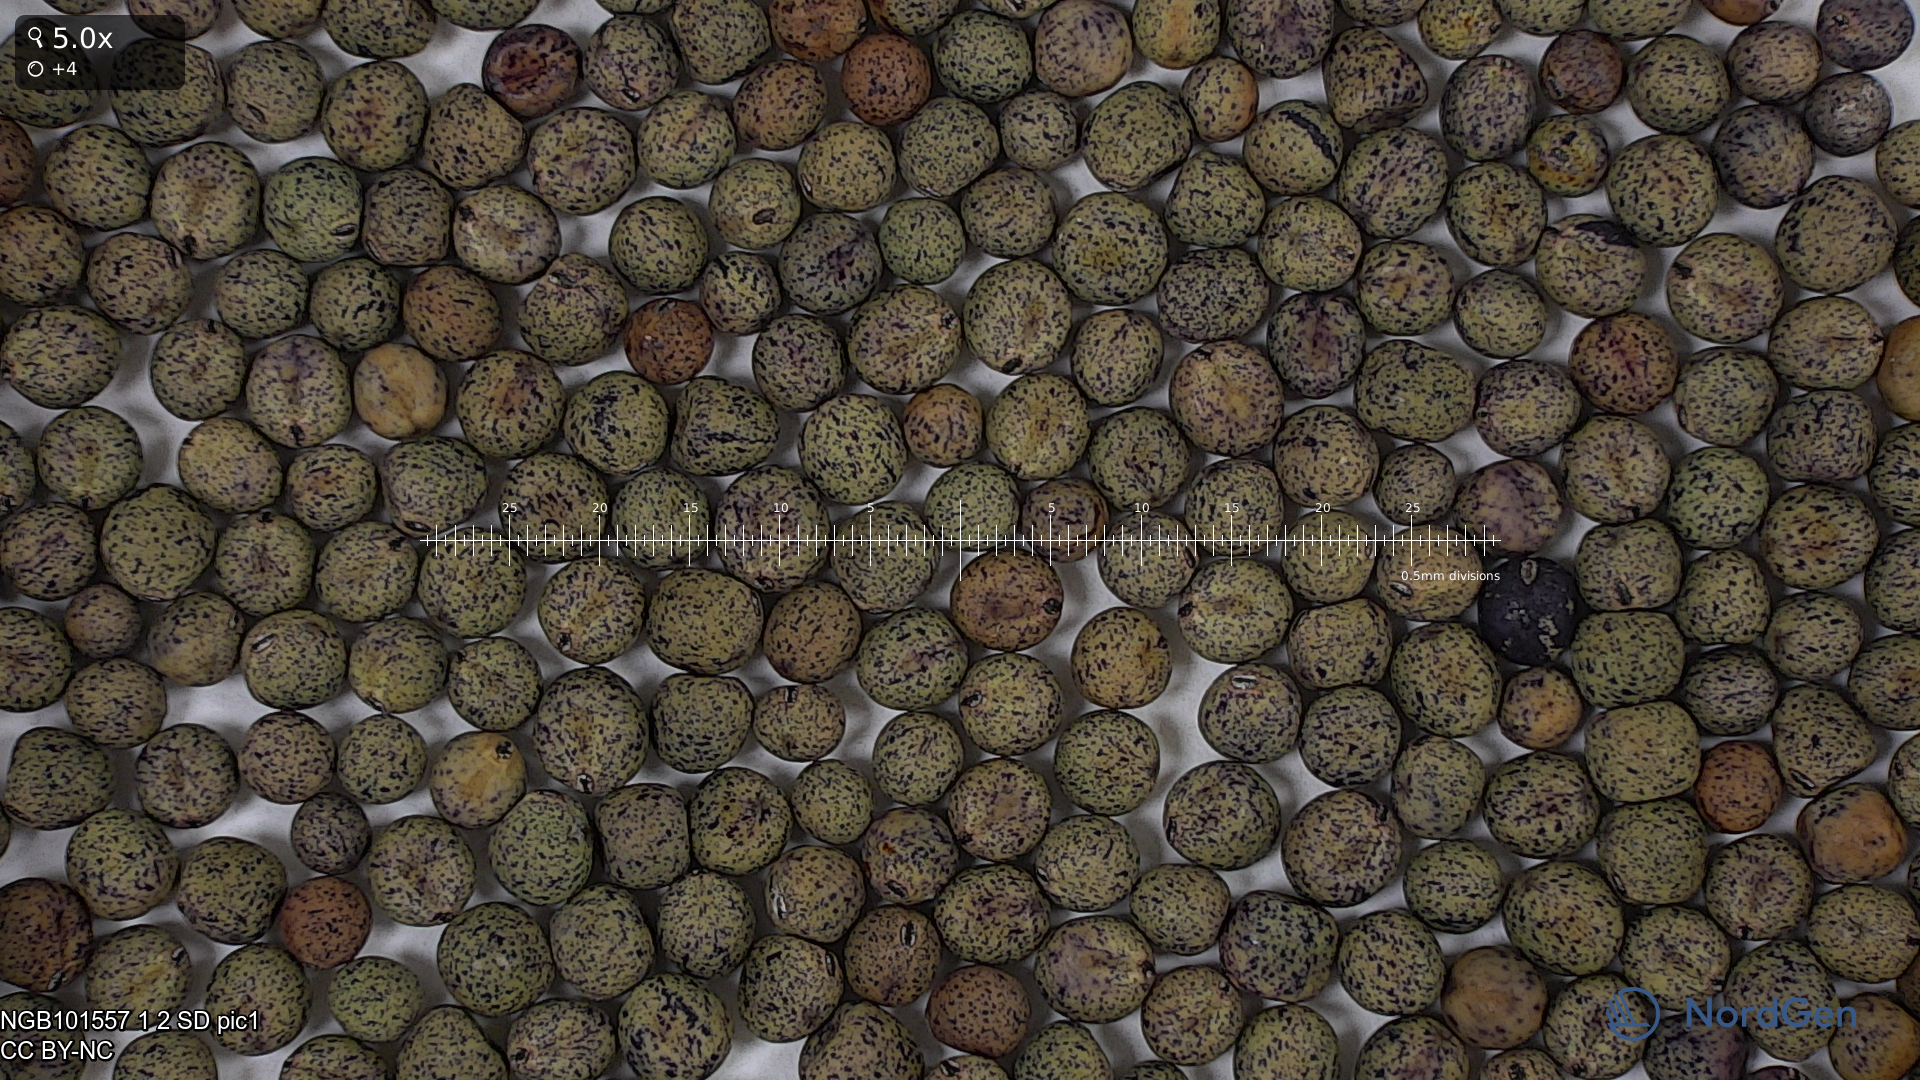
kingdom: Plantae
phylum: Tracheophyta
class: Magnoliopsida
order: Fabales
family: Fabaceae
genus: Lathyrus
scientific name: Lathyrus oleraceus
